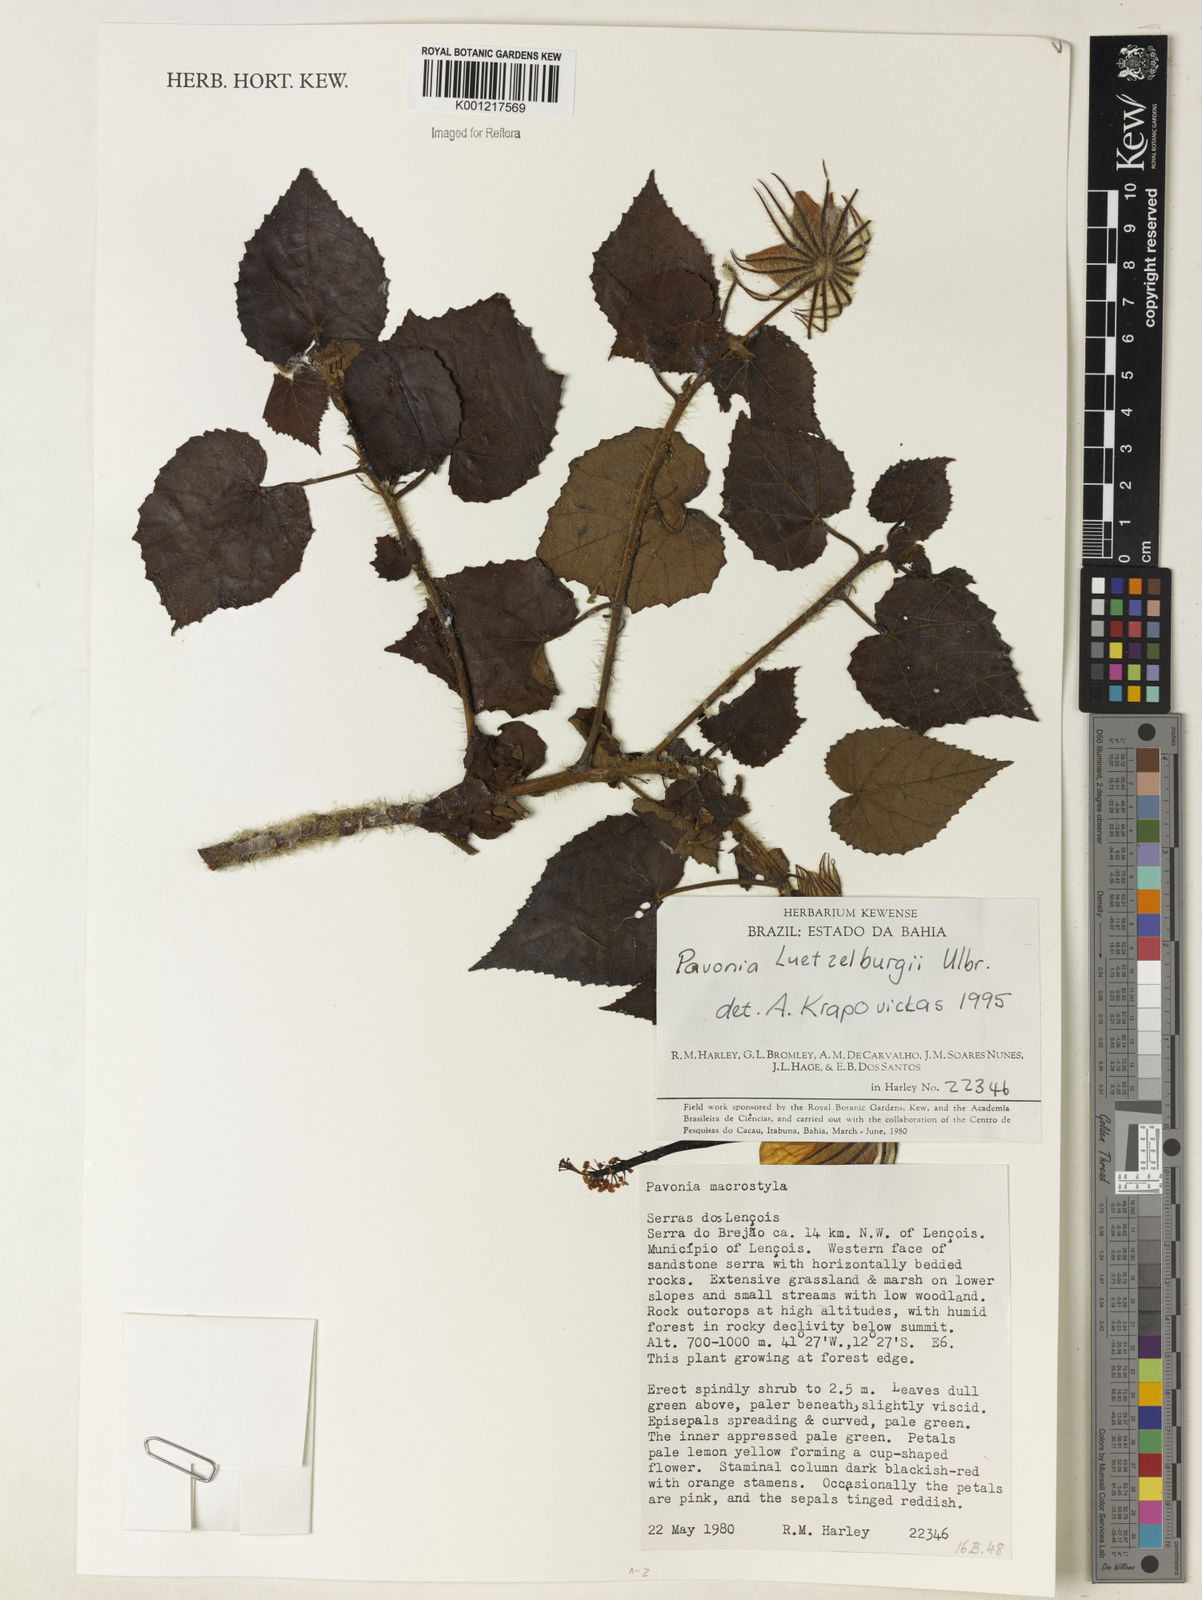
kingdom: Plantae
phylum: Tracheophyta
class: Magnoliopsida
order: Malvales
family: Malvaceae
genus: Pavonia
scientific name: Pavonia luetzelburgii
